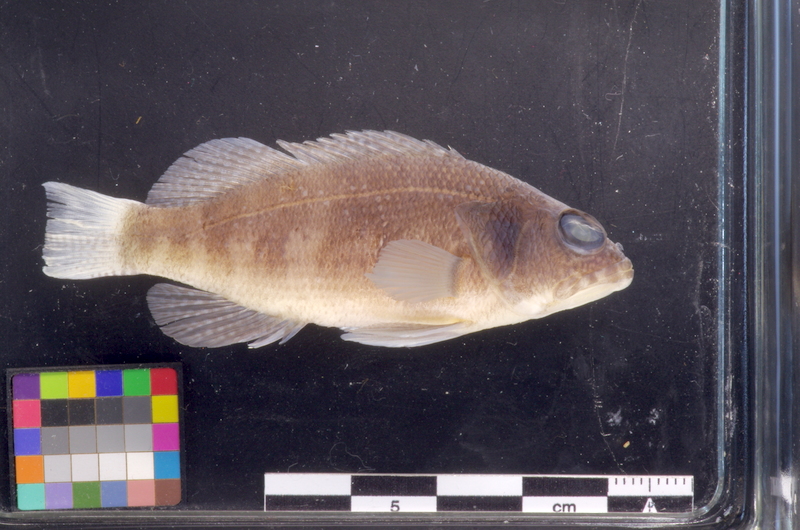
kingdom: Animalia
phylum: Chordata
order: Perciformes
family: Serranidae
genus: Serranus
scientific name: Serranus pulcher
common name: São tomé comber
